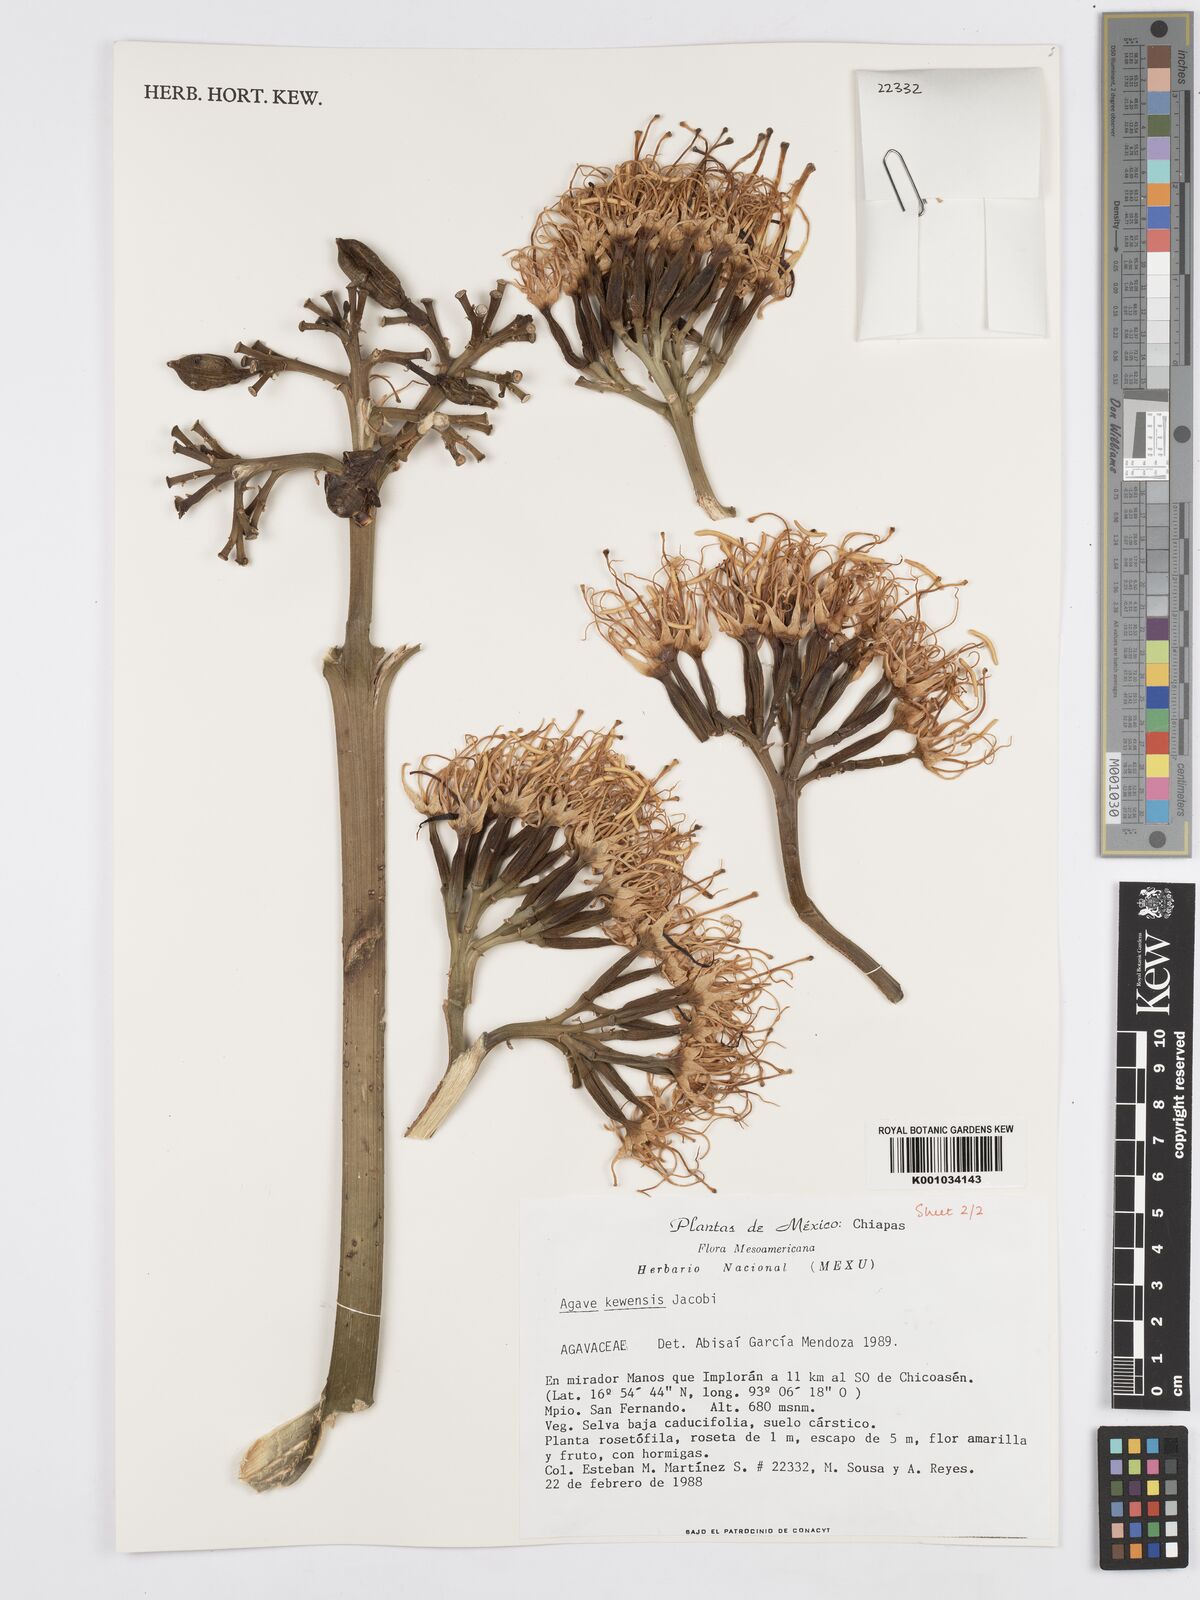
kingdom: Plantae
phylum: Tracheophyta
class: Liliopsida
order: Asparagales
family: Asparagaceae
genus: Agave
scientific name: Agave kewensis
